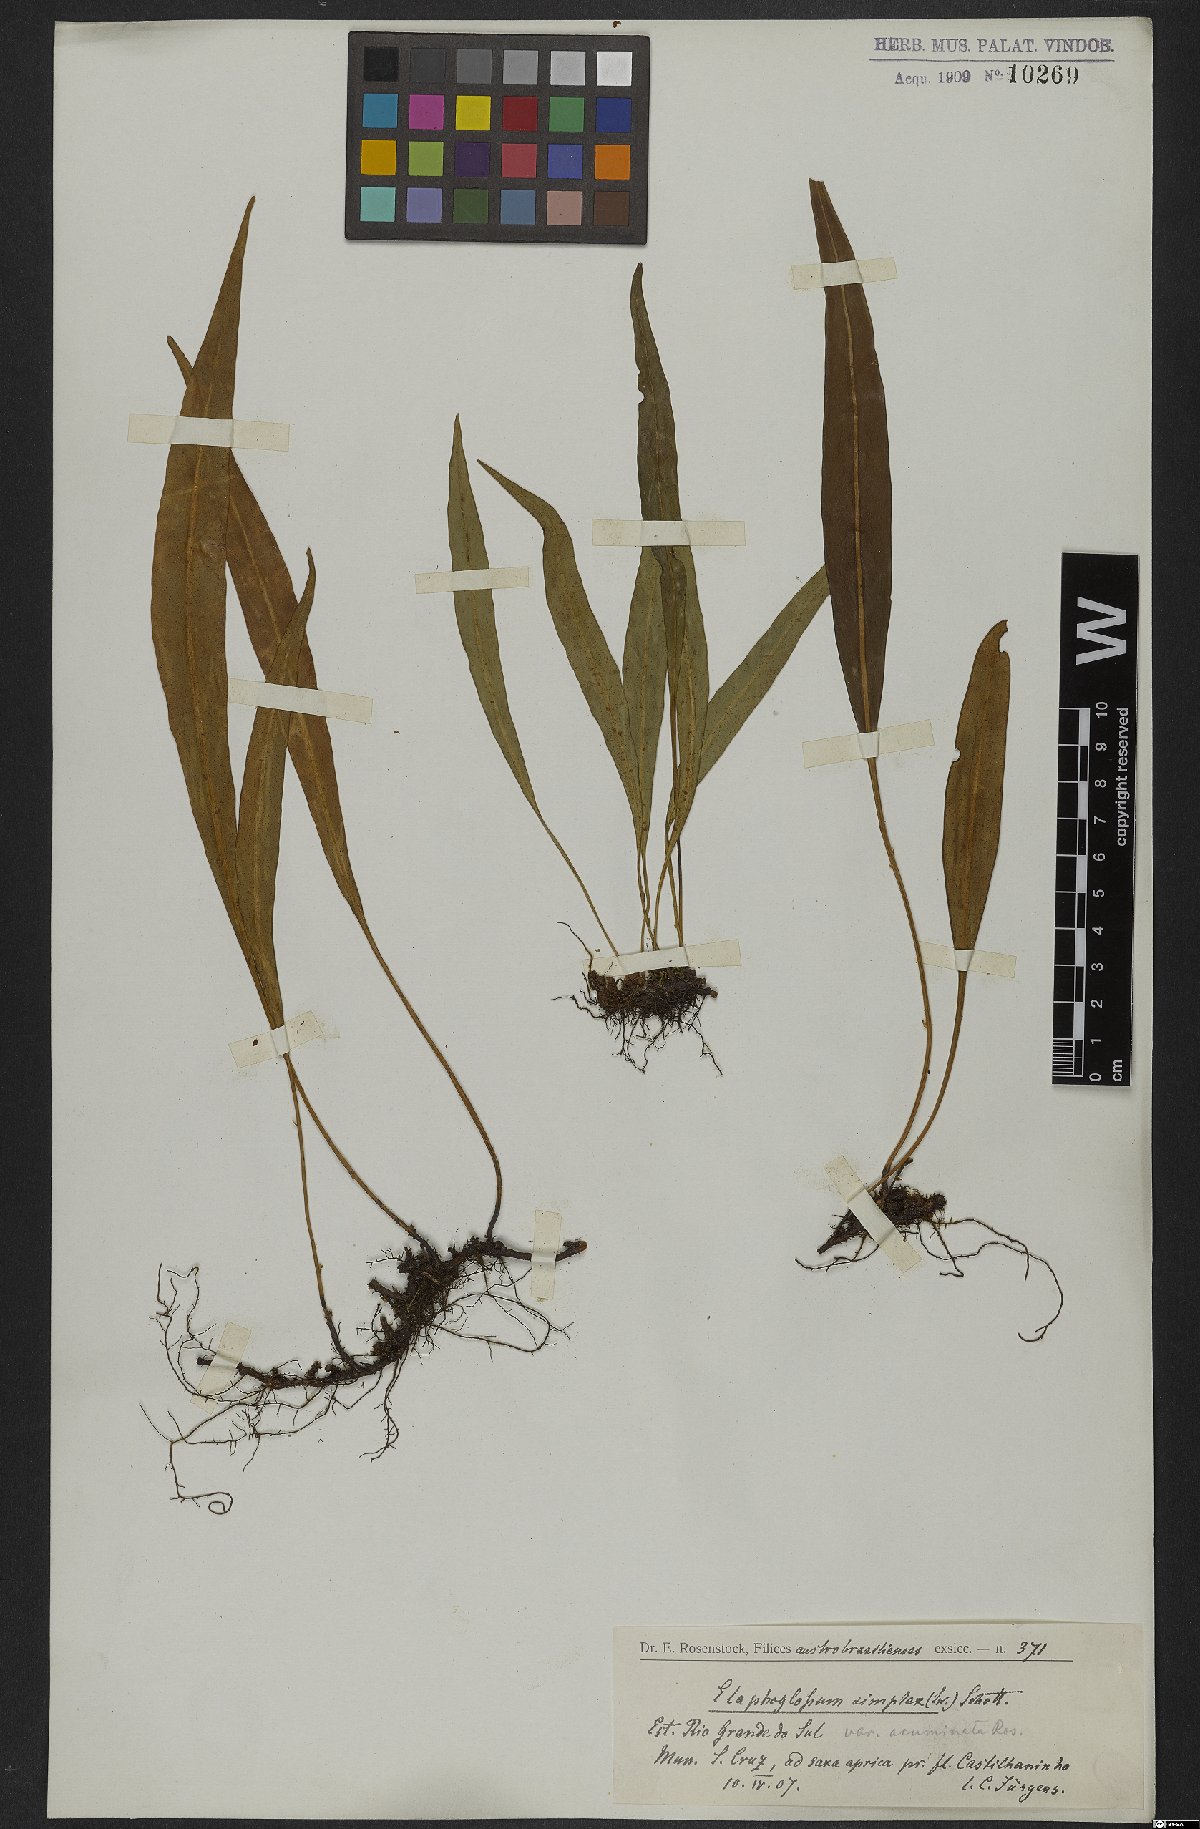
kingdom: Plantae
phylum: Tracheophyta
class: Polypodiopsida
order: Polypodiales
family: Dryopteridaceae
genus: Elaphoglossum
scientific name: Elaphoglossum simplex
